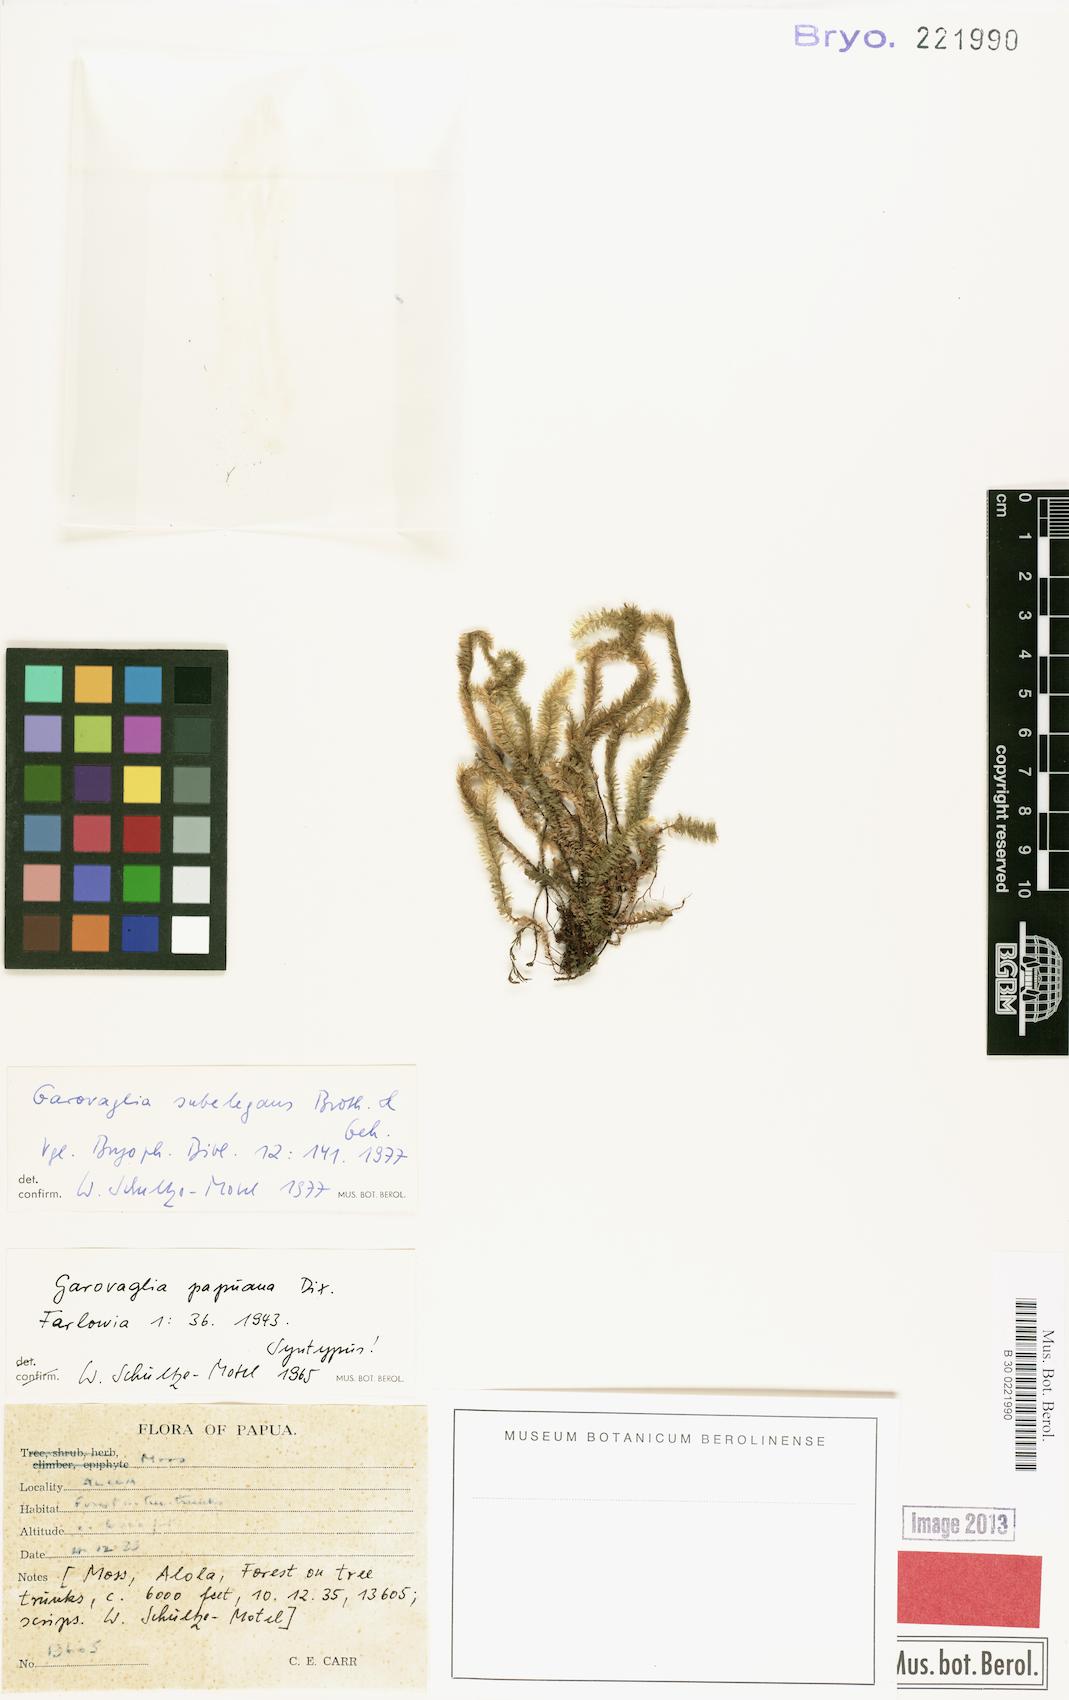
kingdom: Plantae
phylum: Bryophyta
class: Bryopsida
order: Ptychomniales
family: Ptychomniaceae
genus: Garovaglia
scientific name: Garovaglia subelegans
